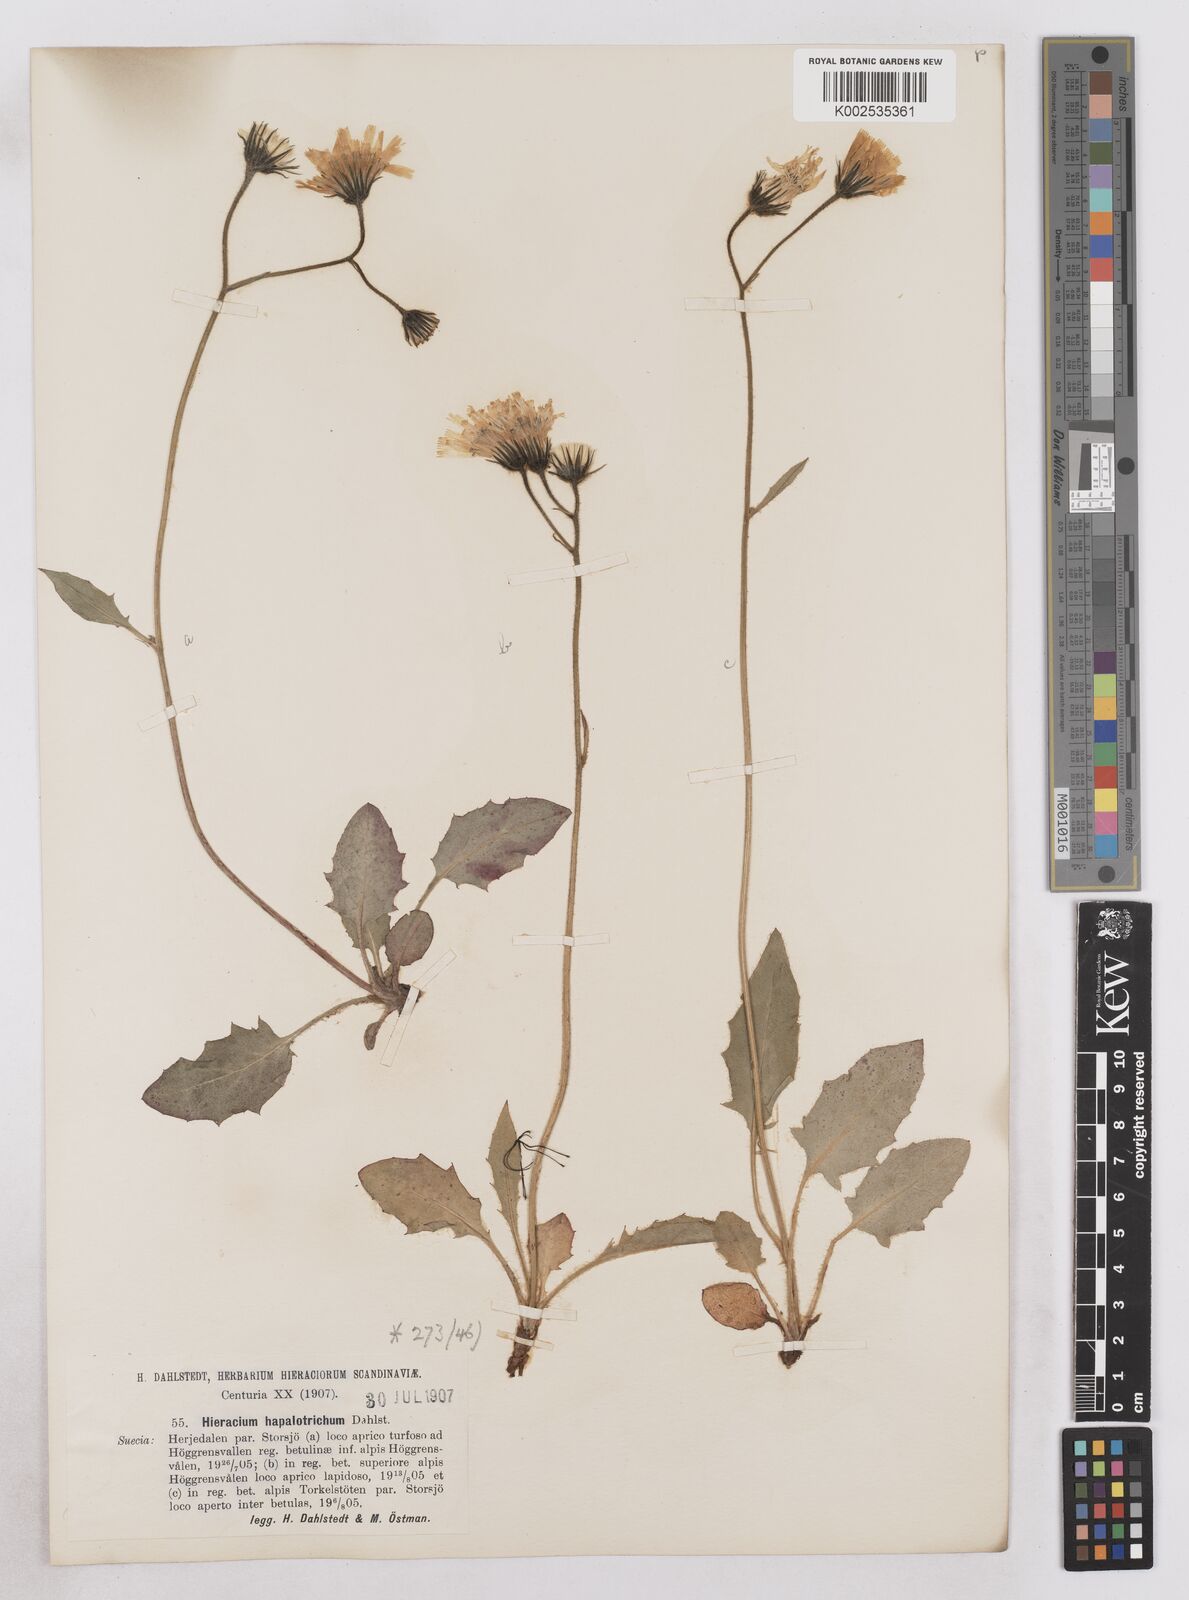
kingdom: Plantae
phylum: Tracheophyta
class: Magnoliopsida
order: Asterales
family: Asteraceae
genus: Hieracium
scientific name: Hieracium conspurcans
